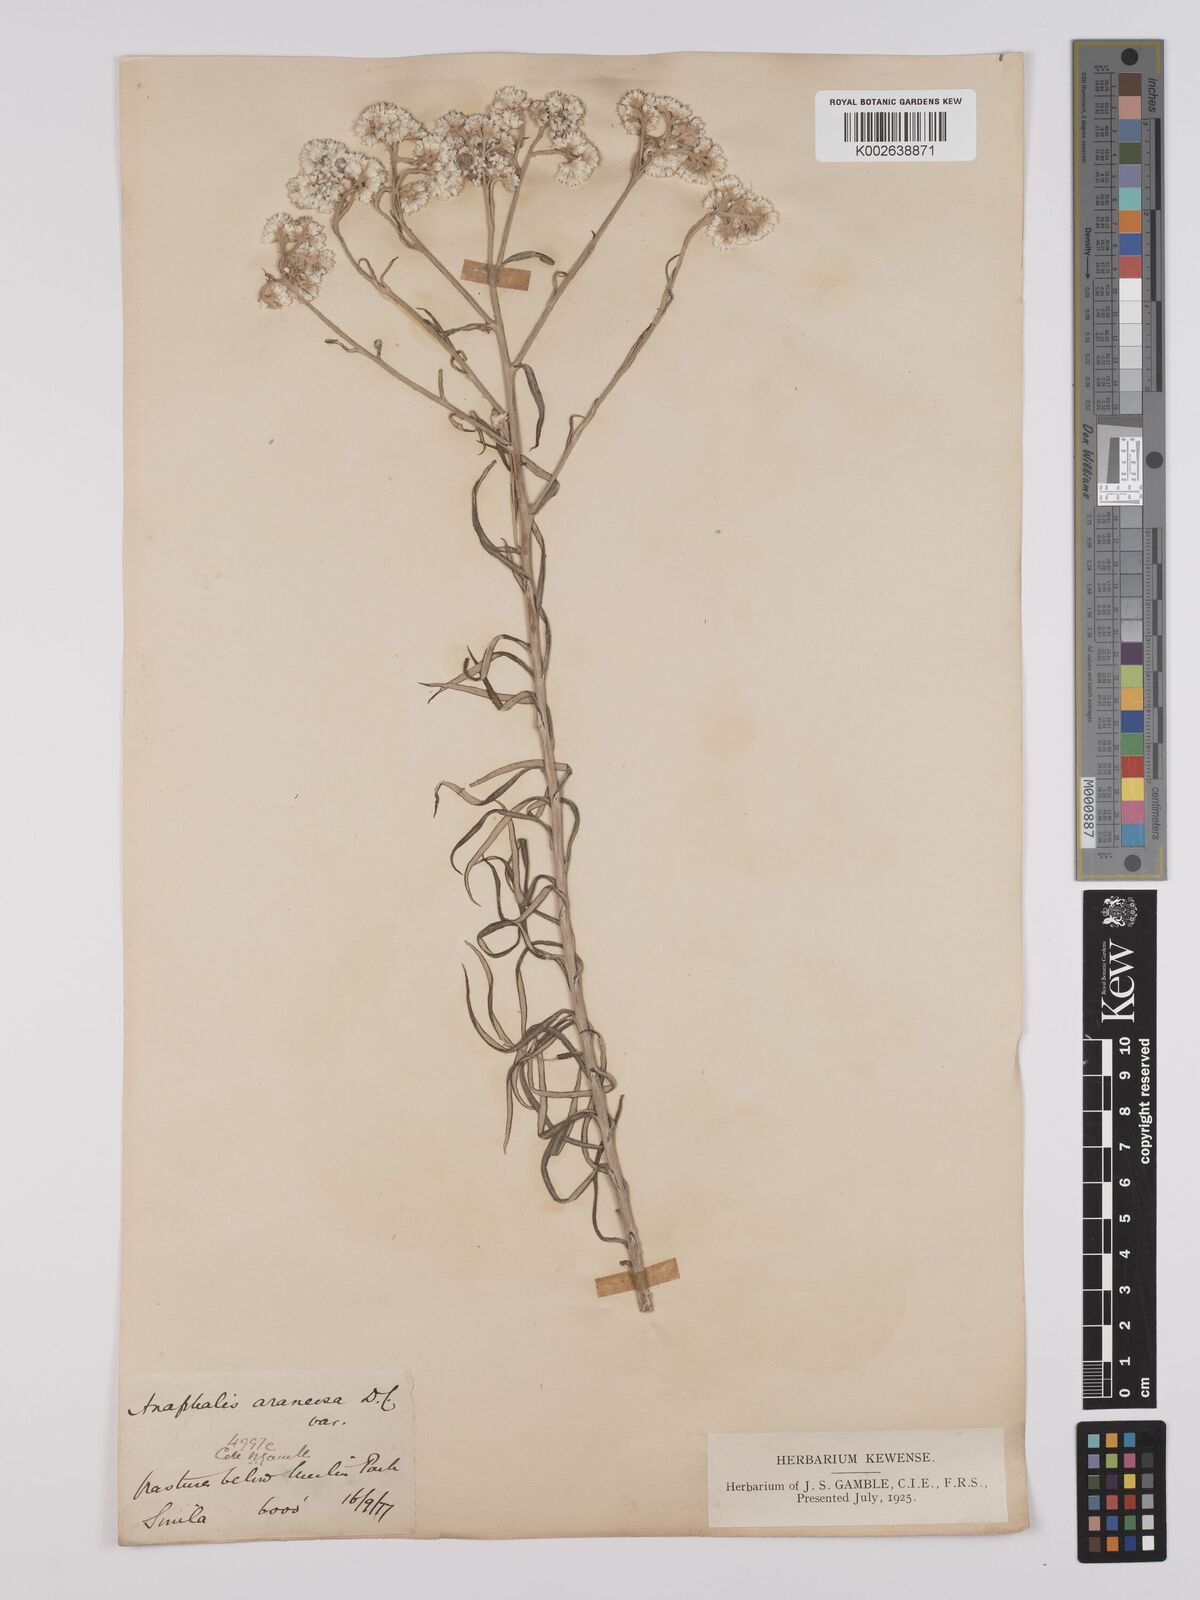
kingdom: Plantae
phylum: Tracheophyta
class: Magnoliopsida
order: Asterales
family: Asteraceae
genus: Anaphalis
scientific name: Anaphalis busua
